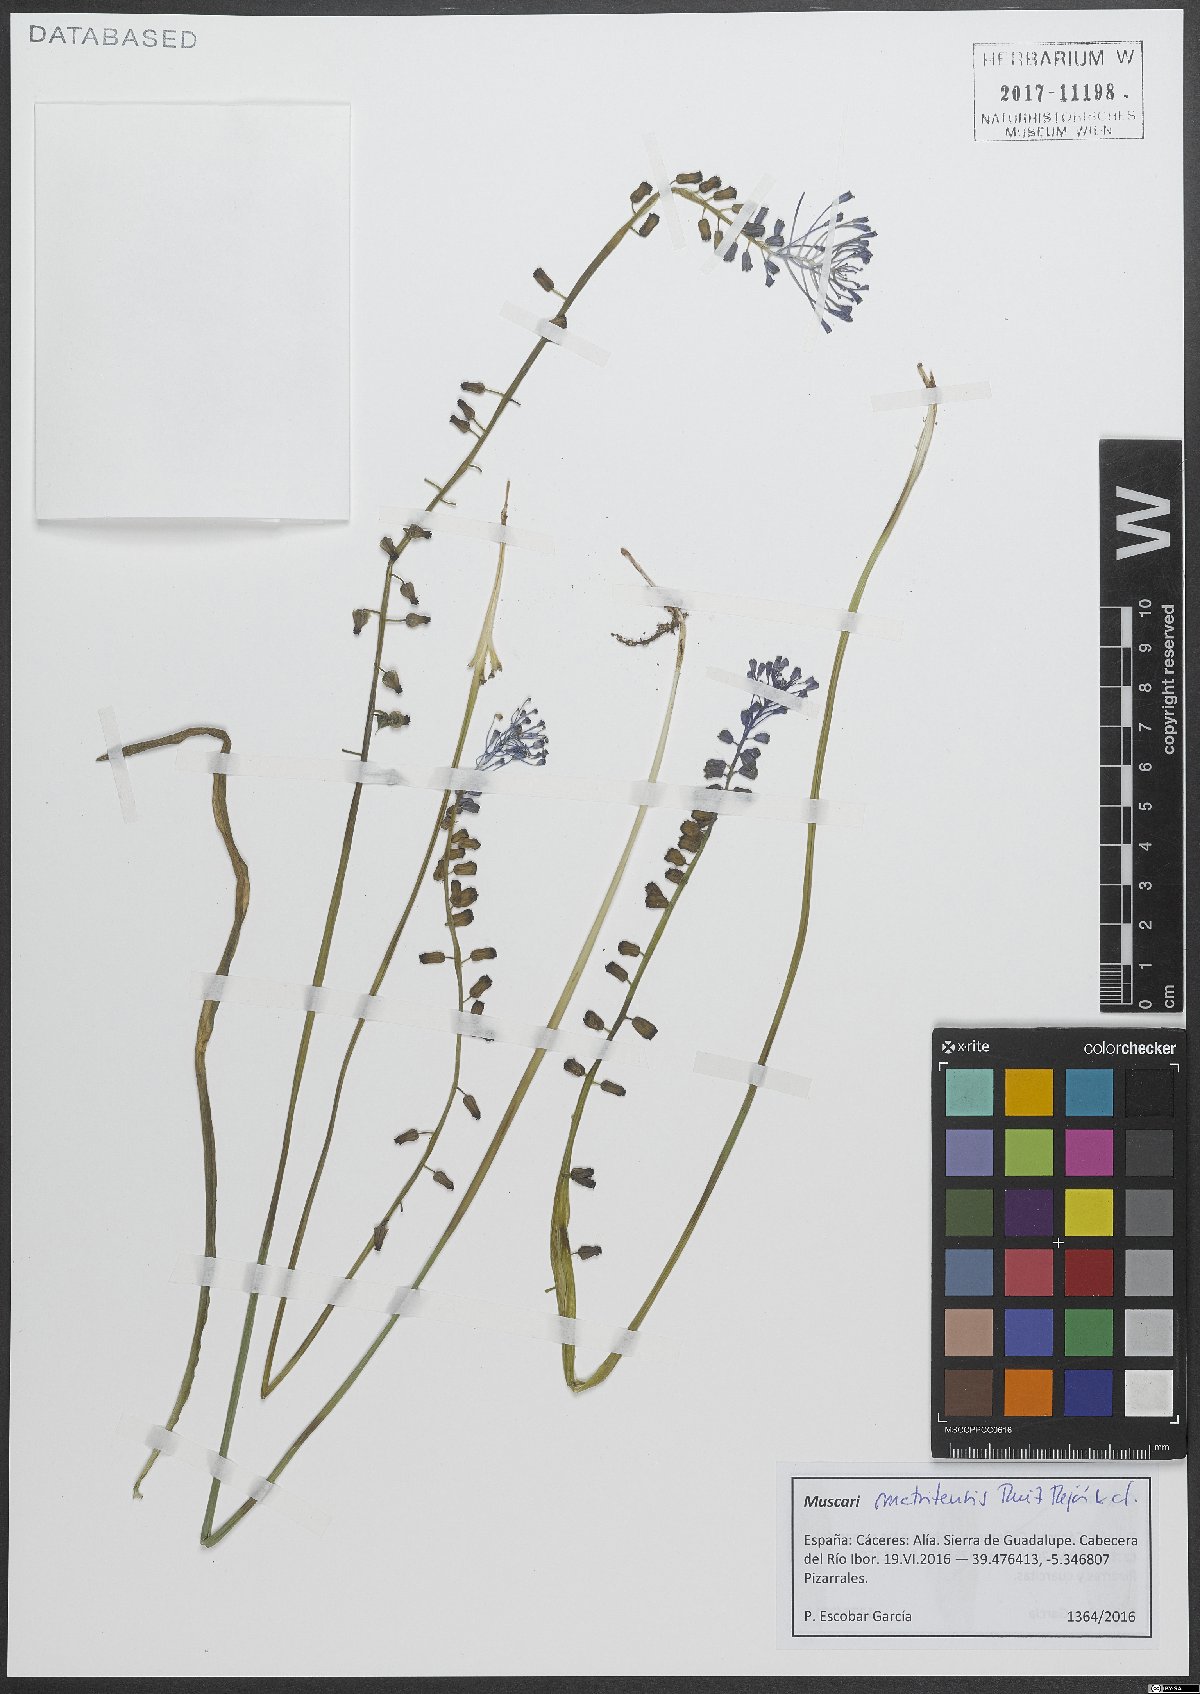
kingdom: Plantae
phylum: Tracheophyta
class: Liliopsida
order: Asparagales
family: Asparagaceae
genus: Muscari
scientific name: Muscari matritense
